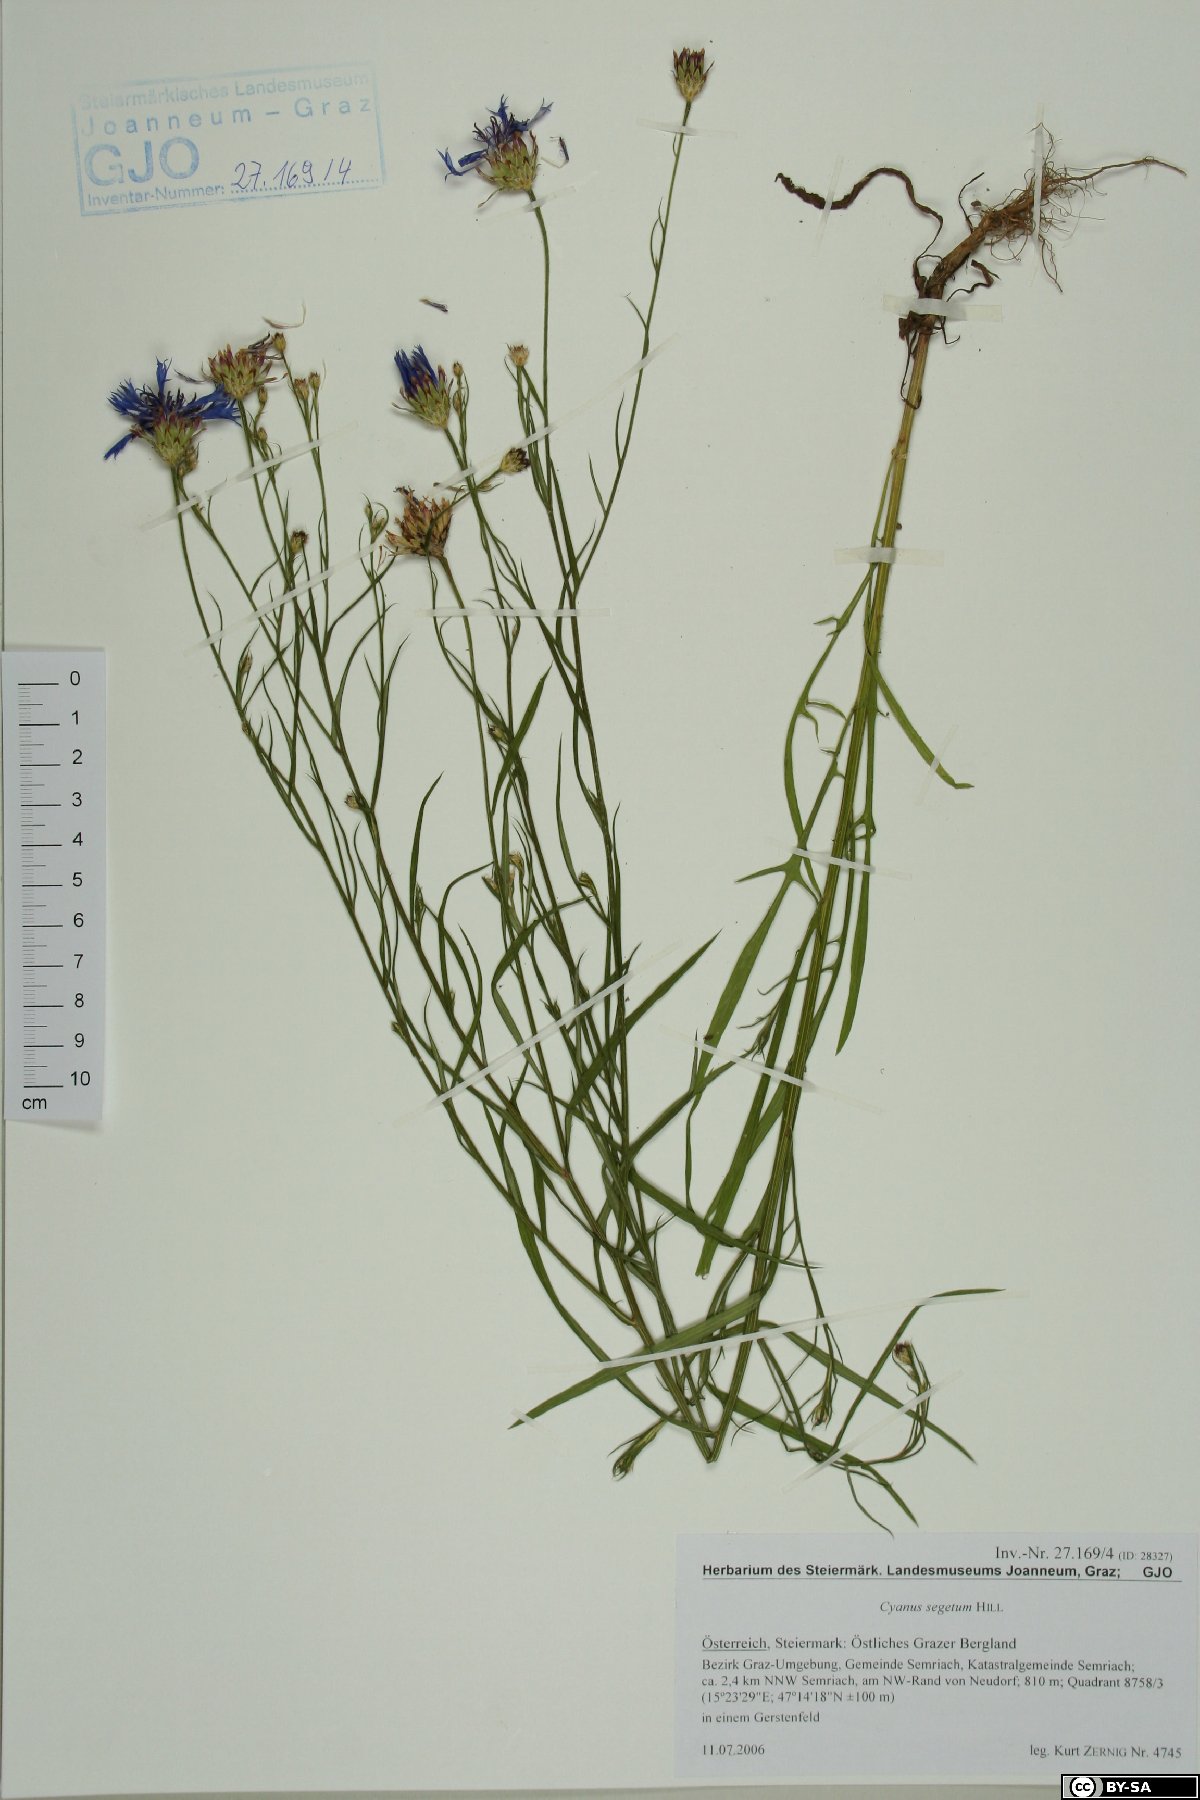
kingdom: Plantae
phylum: Tracheophyta
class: Magnoliopsida
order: Asterales
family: Asteraceae
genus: Centaurea
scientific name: Centaurea cyanus
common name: Cornflower
